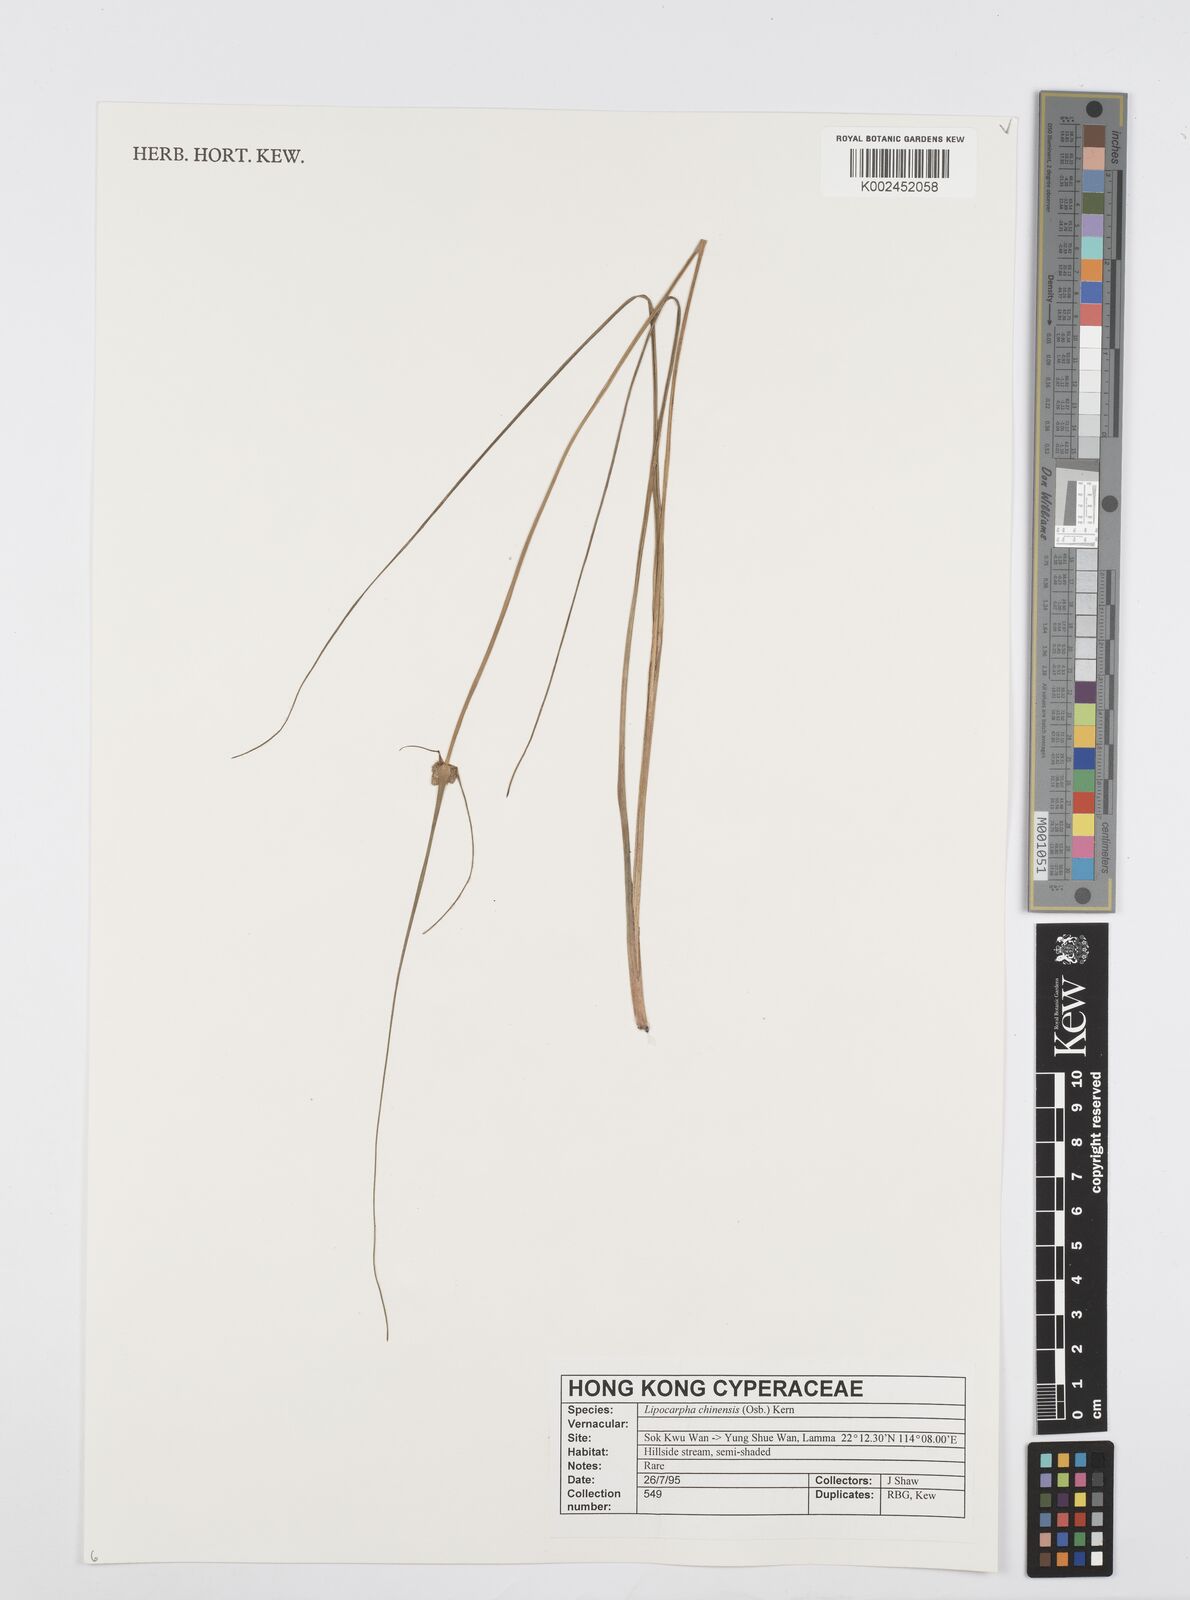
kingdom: Plantae
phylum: Tracheophyta
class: Liliopsida
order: Poales
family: Cyperaceae
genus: Cyperus
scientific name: Cyperus albescens
